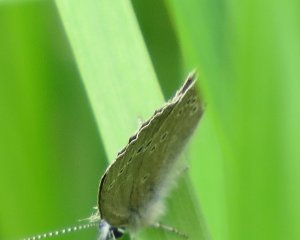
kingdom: Animalia
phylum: Arthropoda
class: Insecta
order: Lepidoptera
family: Lycaenidae
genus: Glaucopsyche
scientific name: Glaucopsyche lygdamus
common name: Silvery Blue
